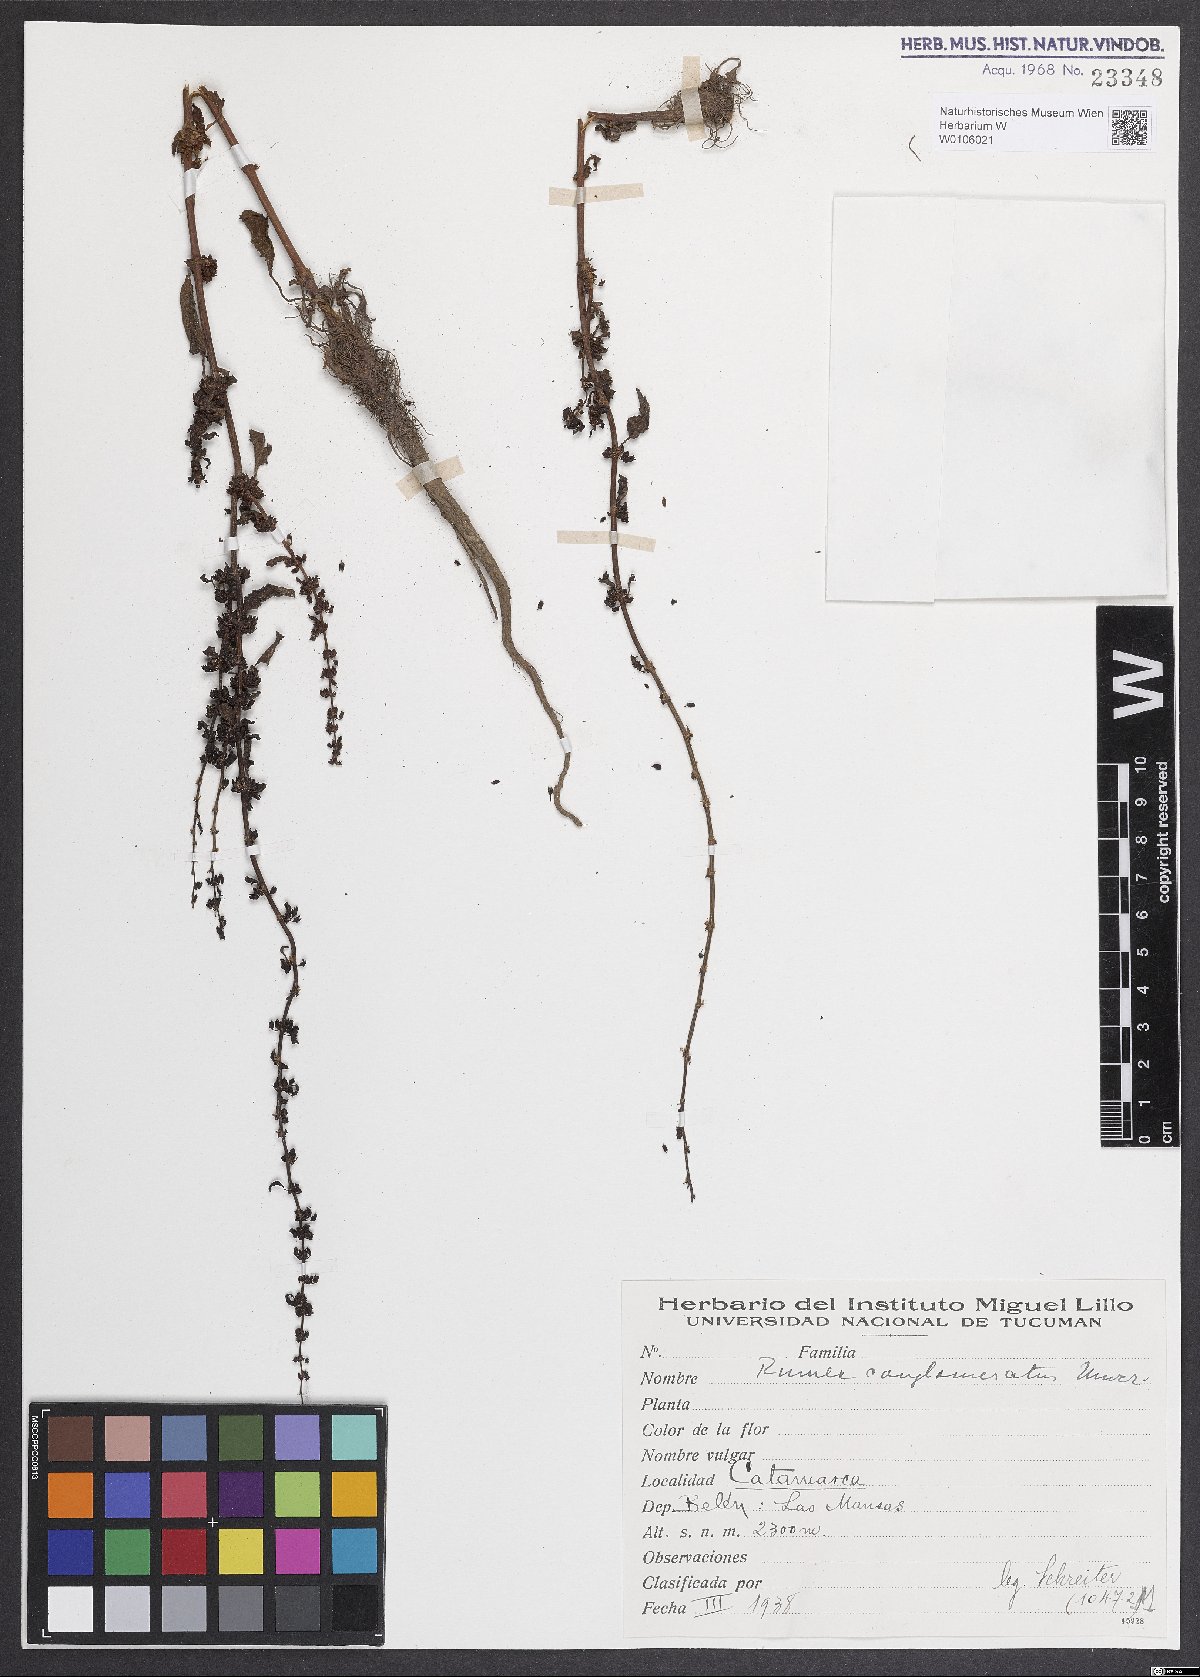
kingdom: Plantae
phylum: Tracheophyta
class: Magnoliopsida
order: Caryophyllales
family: Polygonaceae
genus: Rumex
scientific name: Rumex conglomeratus
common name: Clustered dock
